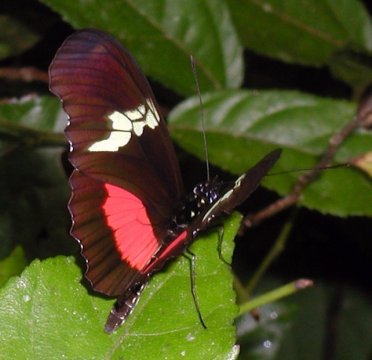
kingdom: Animalia
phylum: Arthropoda
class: Insecta
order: Lepidoptera
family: Nymphalidae
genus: Heliconius
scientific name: Heliconius hortense
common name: Mexican Longwing
